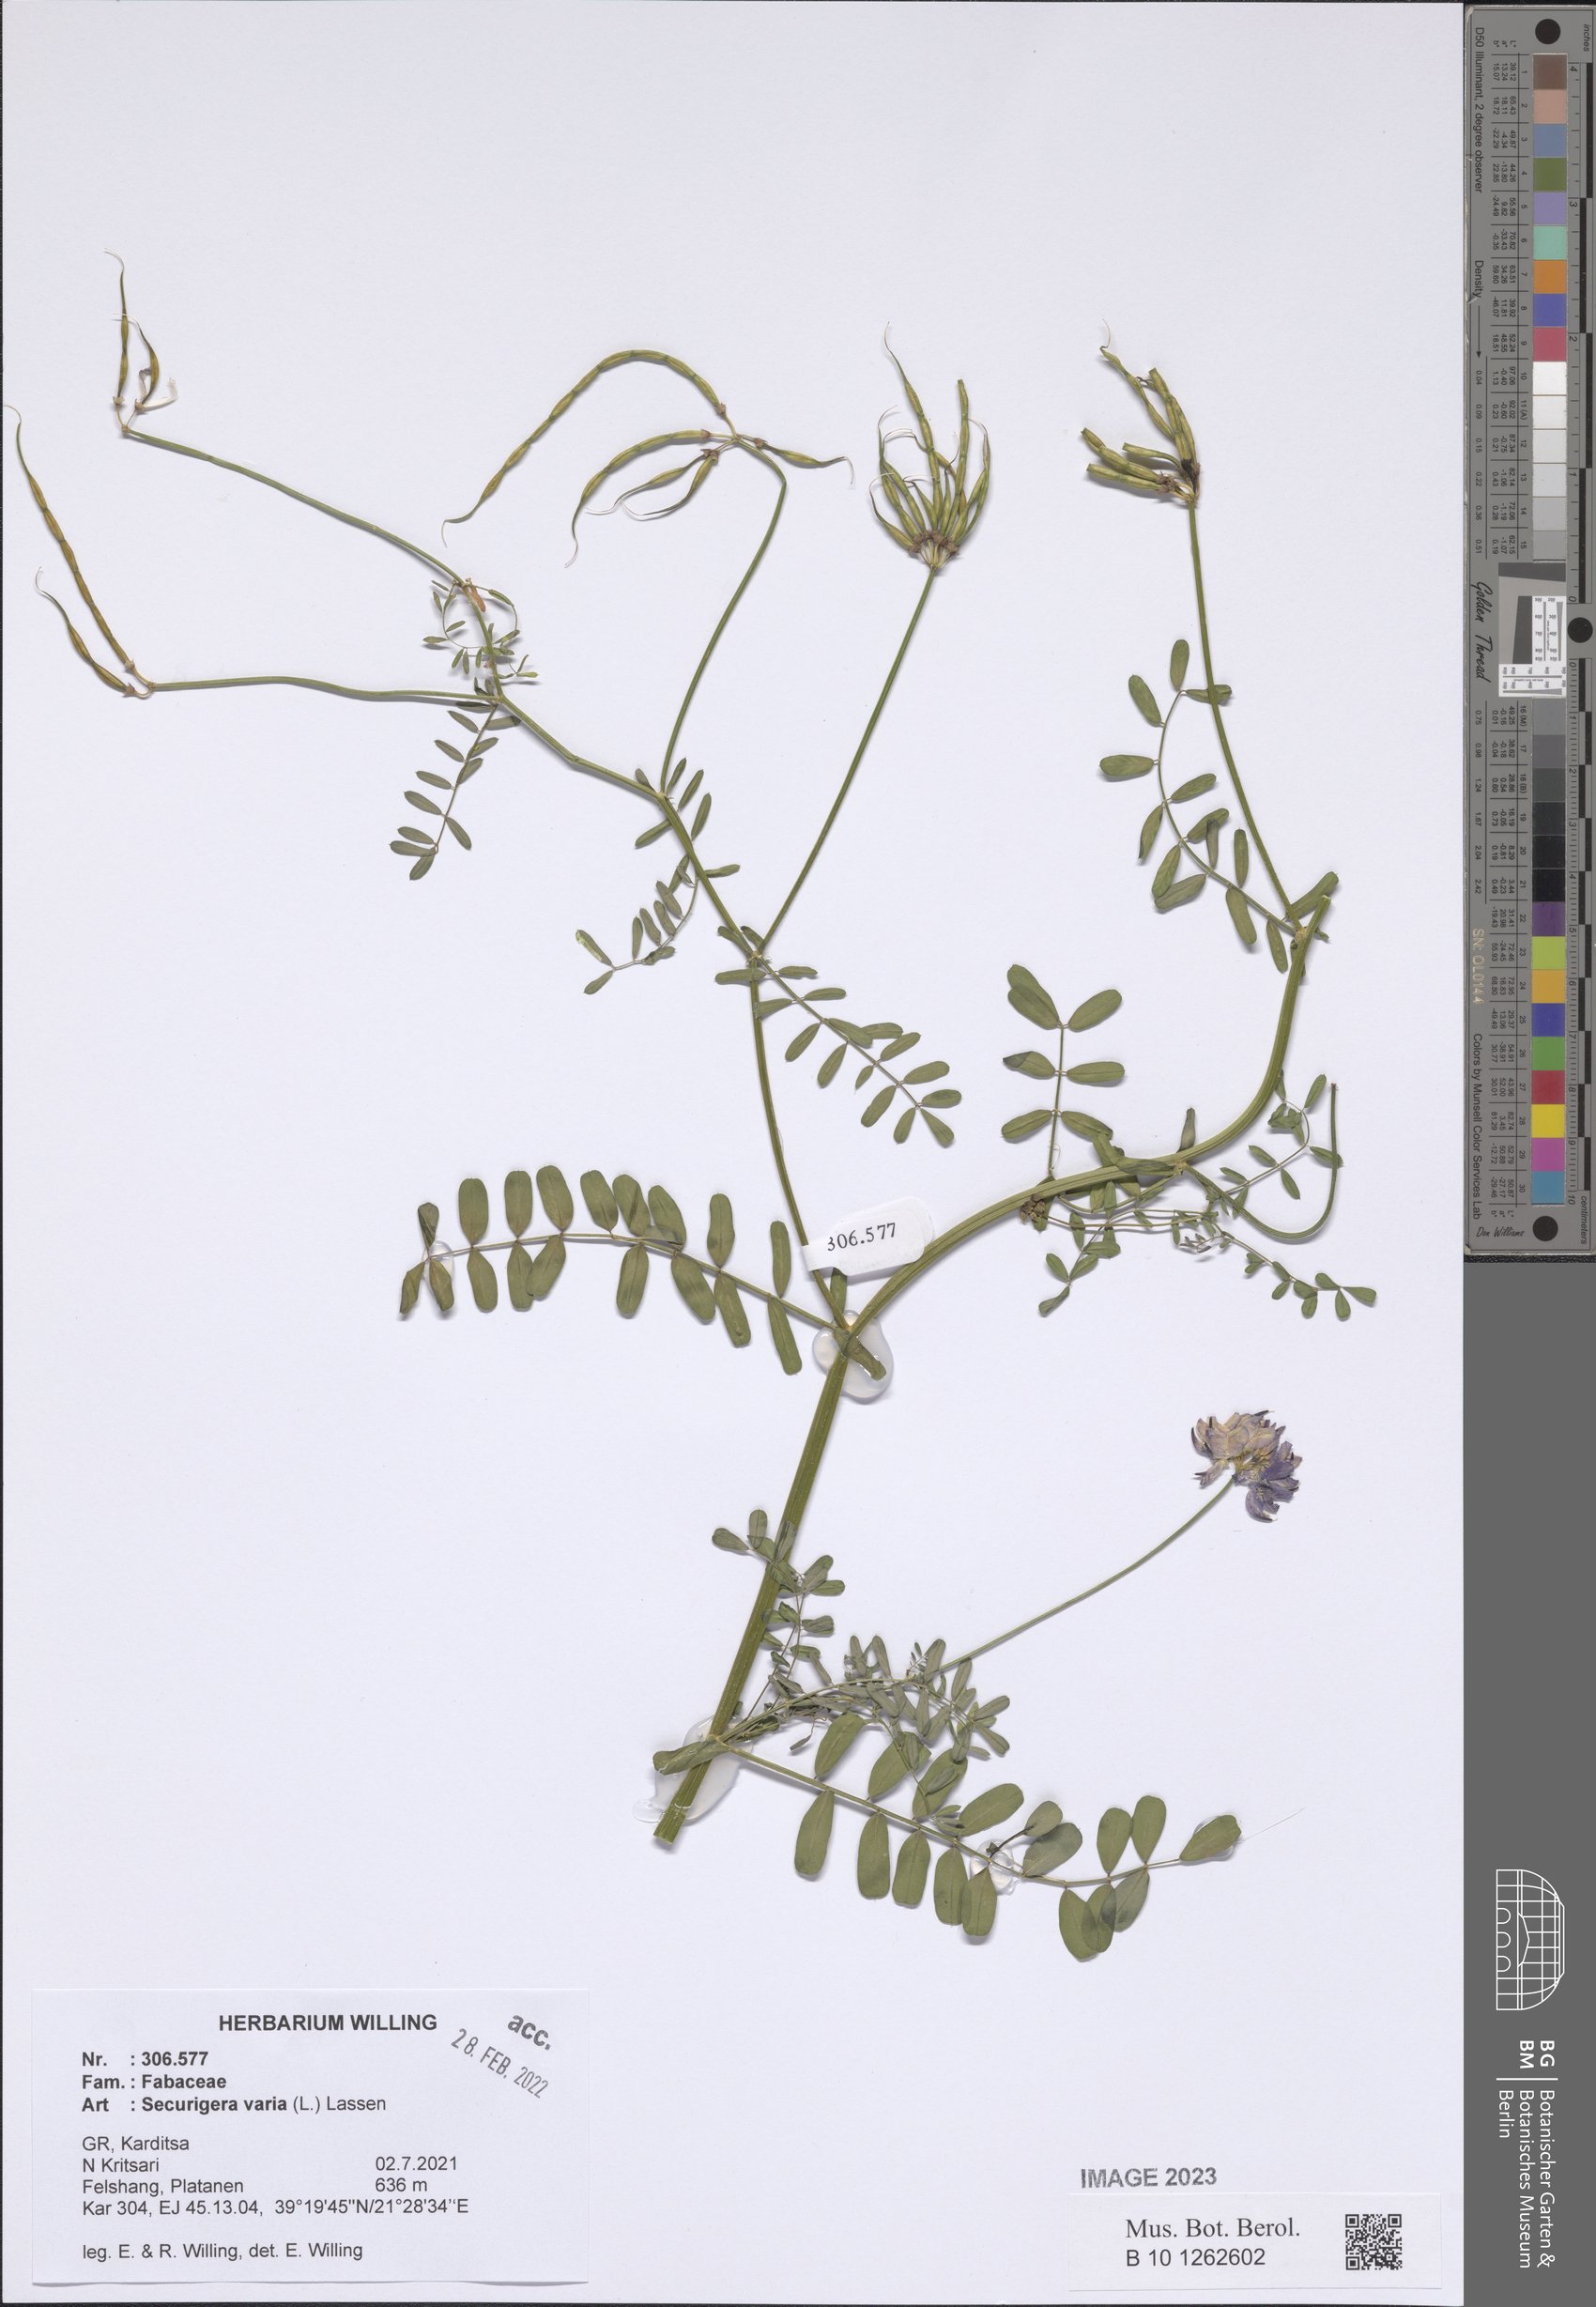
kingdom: Plantae
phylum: Tracheophyta
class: Magnoliopsida
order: Fabales
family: Fabaceae
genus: Coronilla
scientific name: Coronilla varia
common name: Crownvetch
